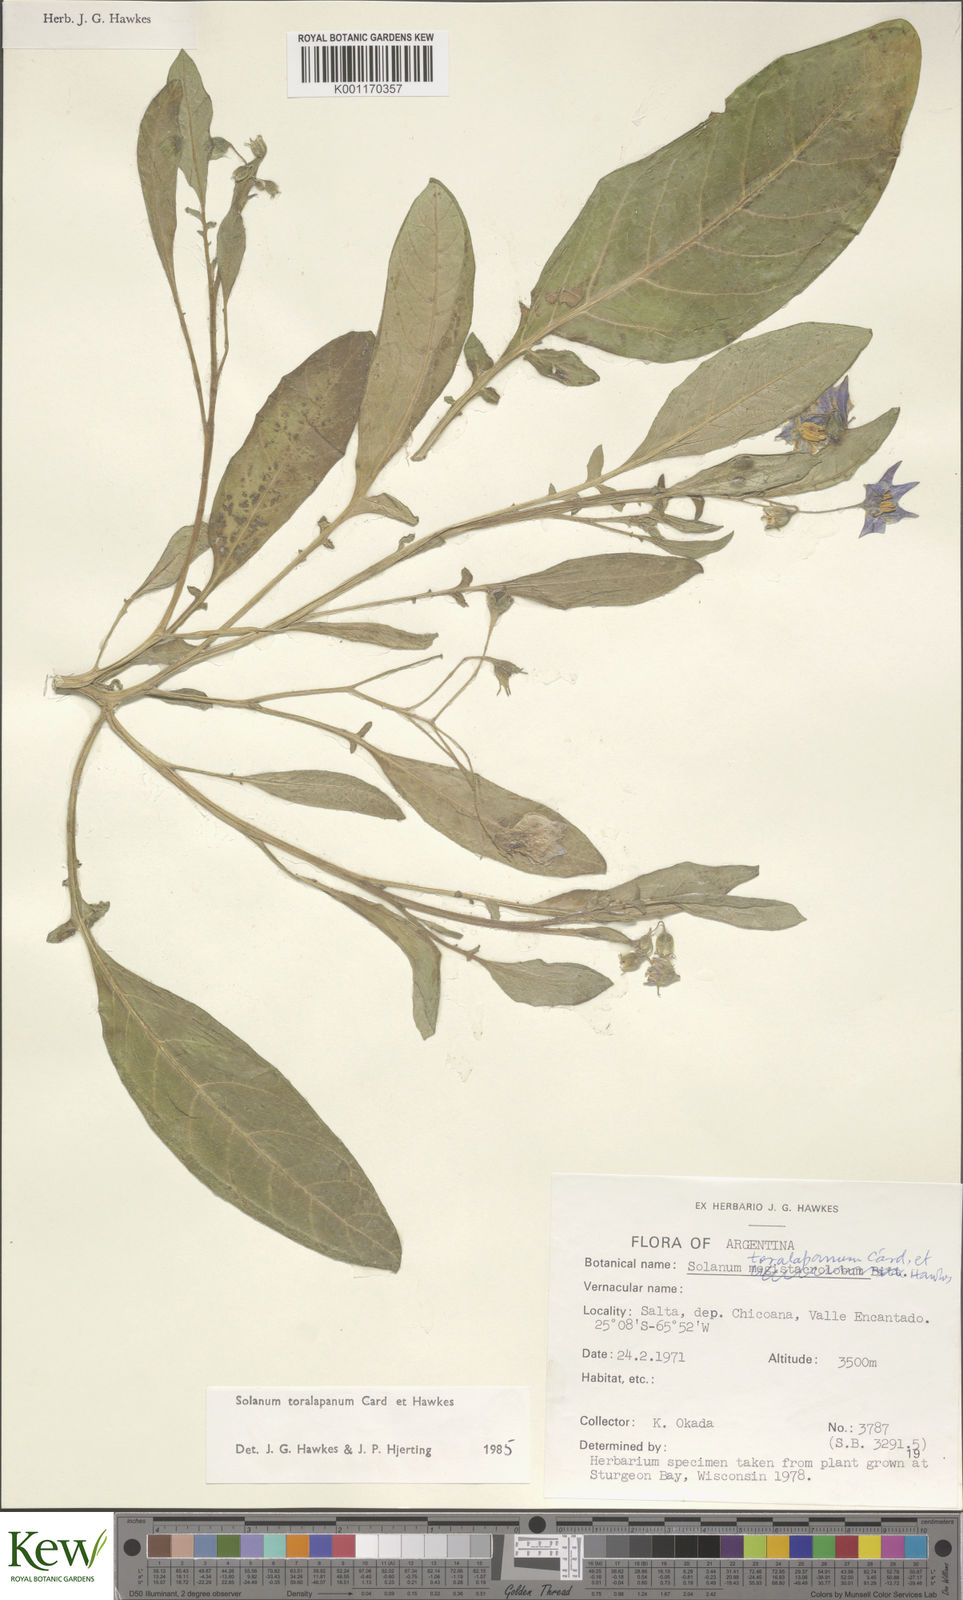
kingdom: Plantae
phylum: Tracheophyta
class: Magnoliopsida
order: Solanales
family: Solanaceae
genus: Solanum
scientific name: Solanum
